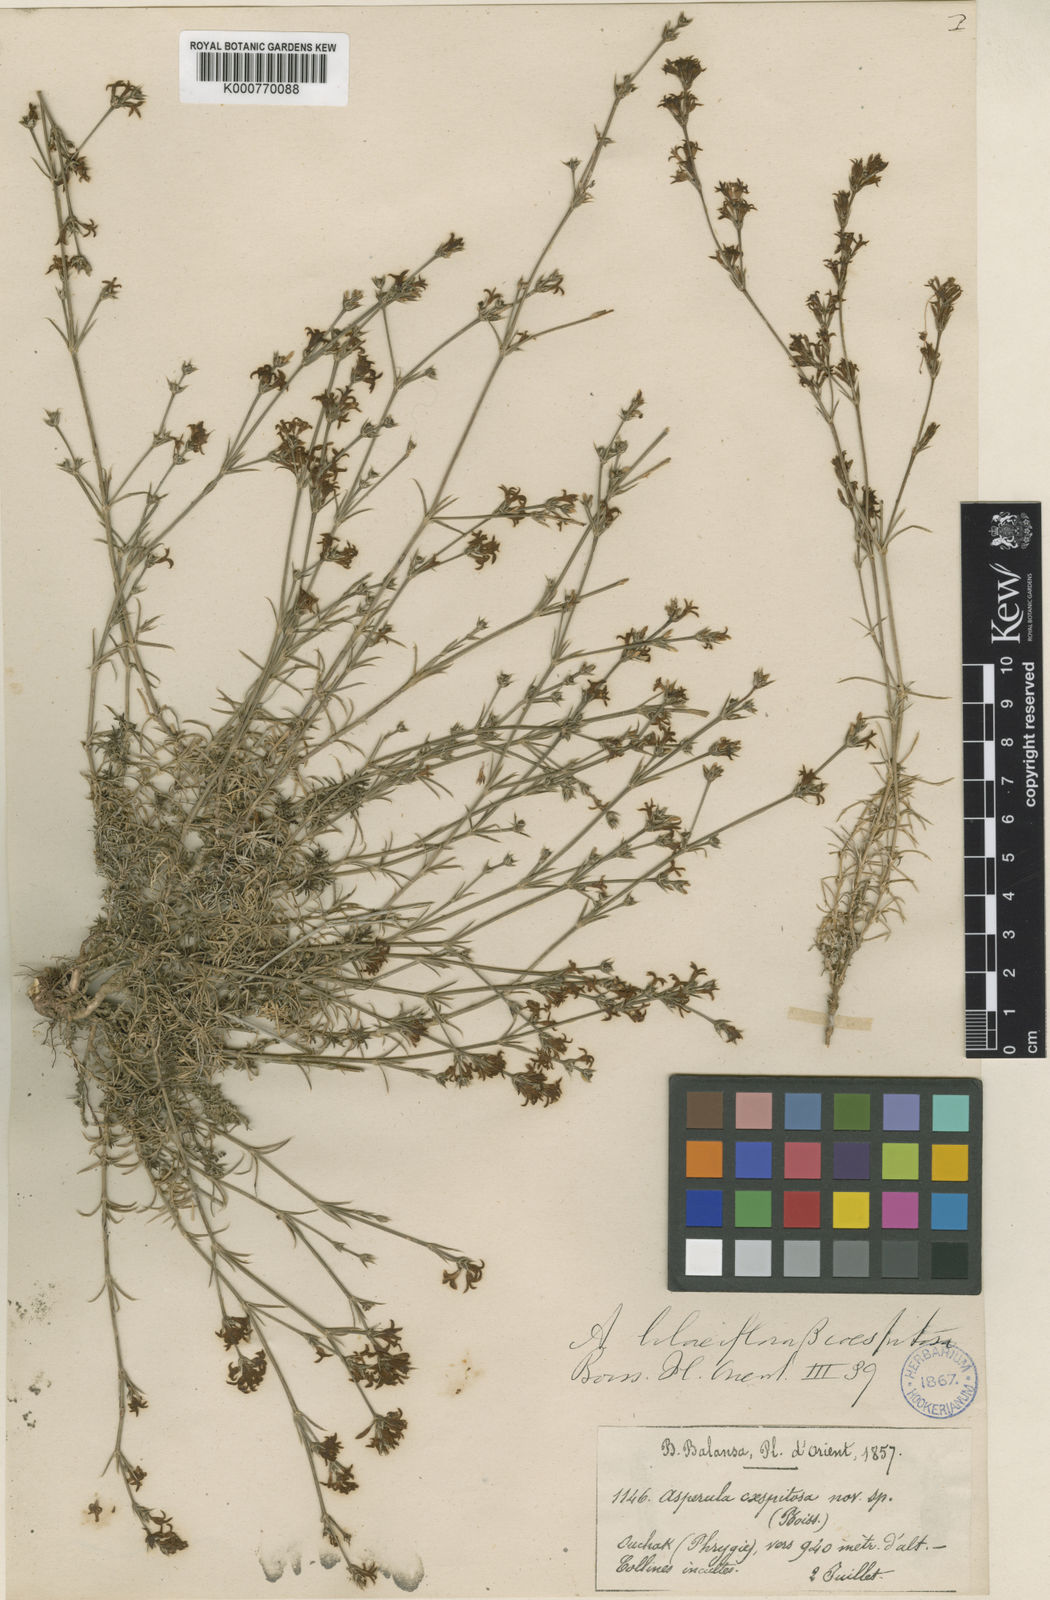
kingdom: Plantae
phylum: Tracheophyta
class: Magnoliopsida
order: Gentianales
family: Rubiaceae
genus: Cynanchica
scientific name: Cynanchica lilaciflora
